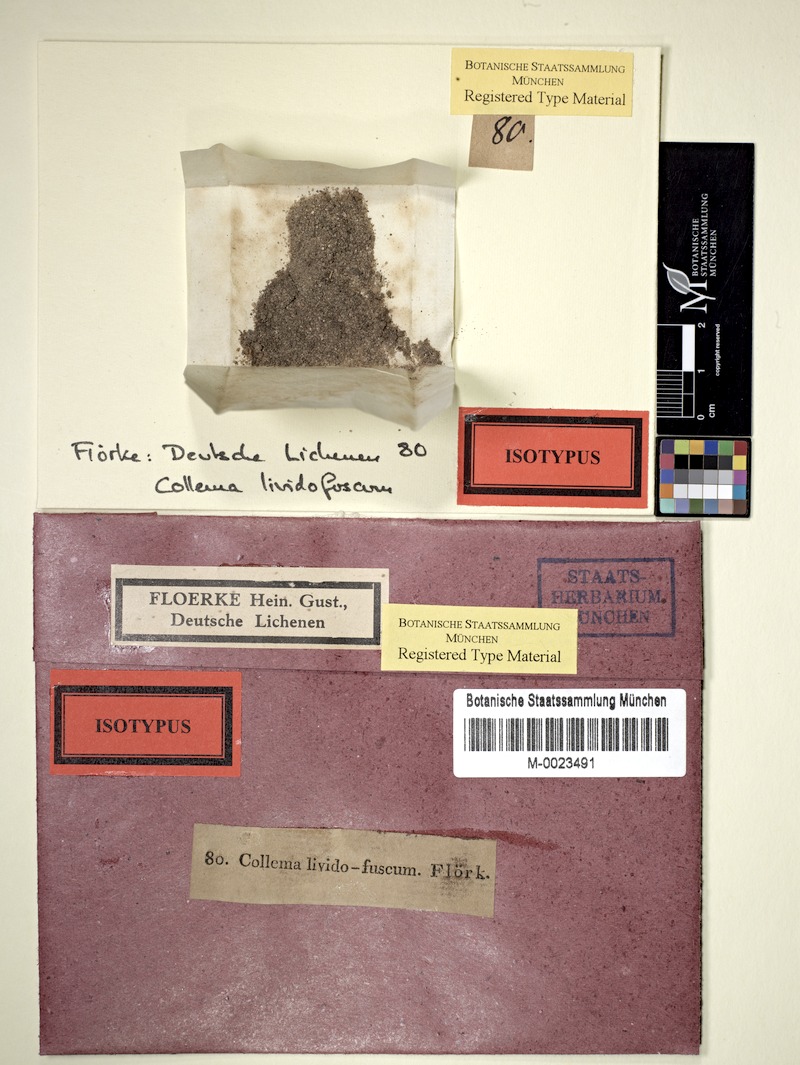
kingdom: Fungi
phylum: Ascomycota
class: Lecanoromycetes
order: Peltigerales
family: Collemataceae
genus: Scytinium
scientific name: Scytinium tenuissimum
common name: Birdnest jellyskin lichen
